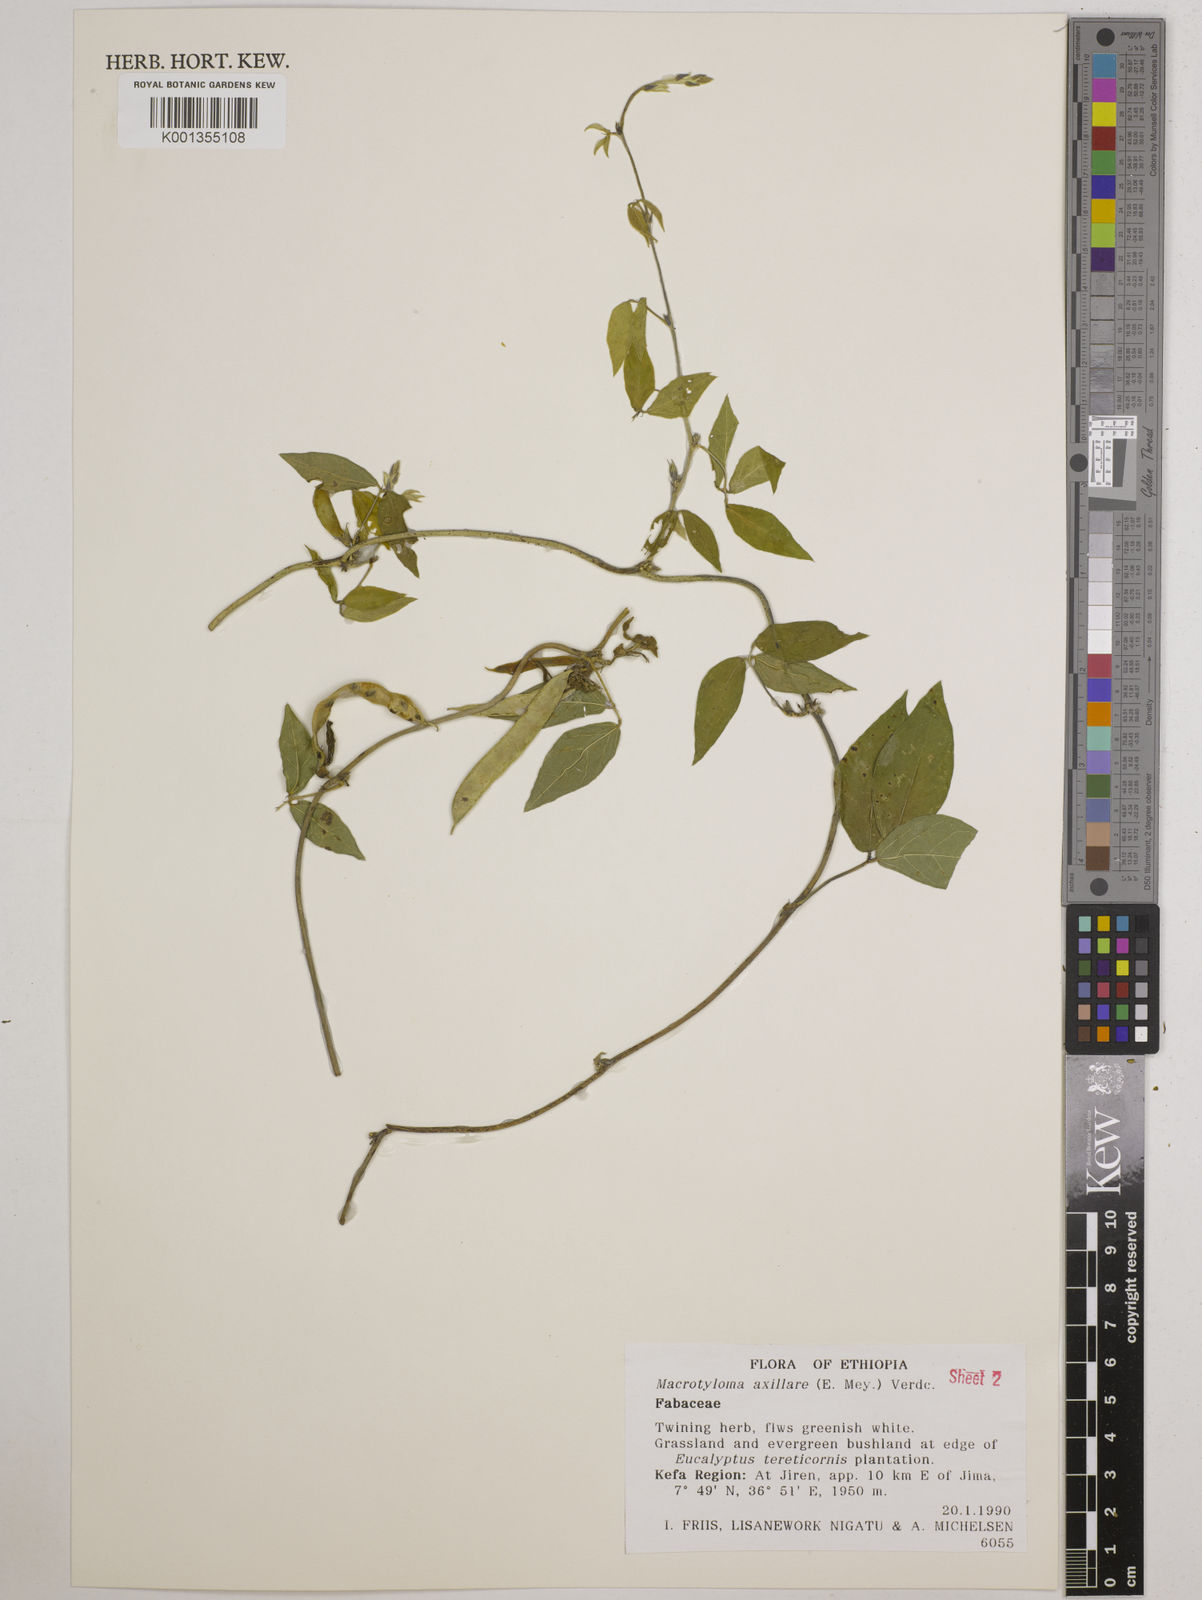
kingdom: Plantae
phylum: Tracheophyta
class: Magnoliopsida
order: Fabales
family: Fabaceae
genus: Macrotyloma
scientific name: Macrotyloma axillare
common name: Perennial horsegram
